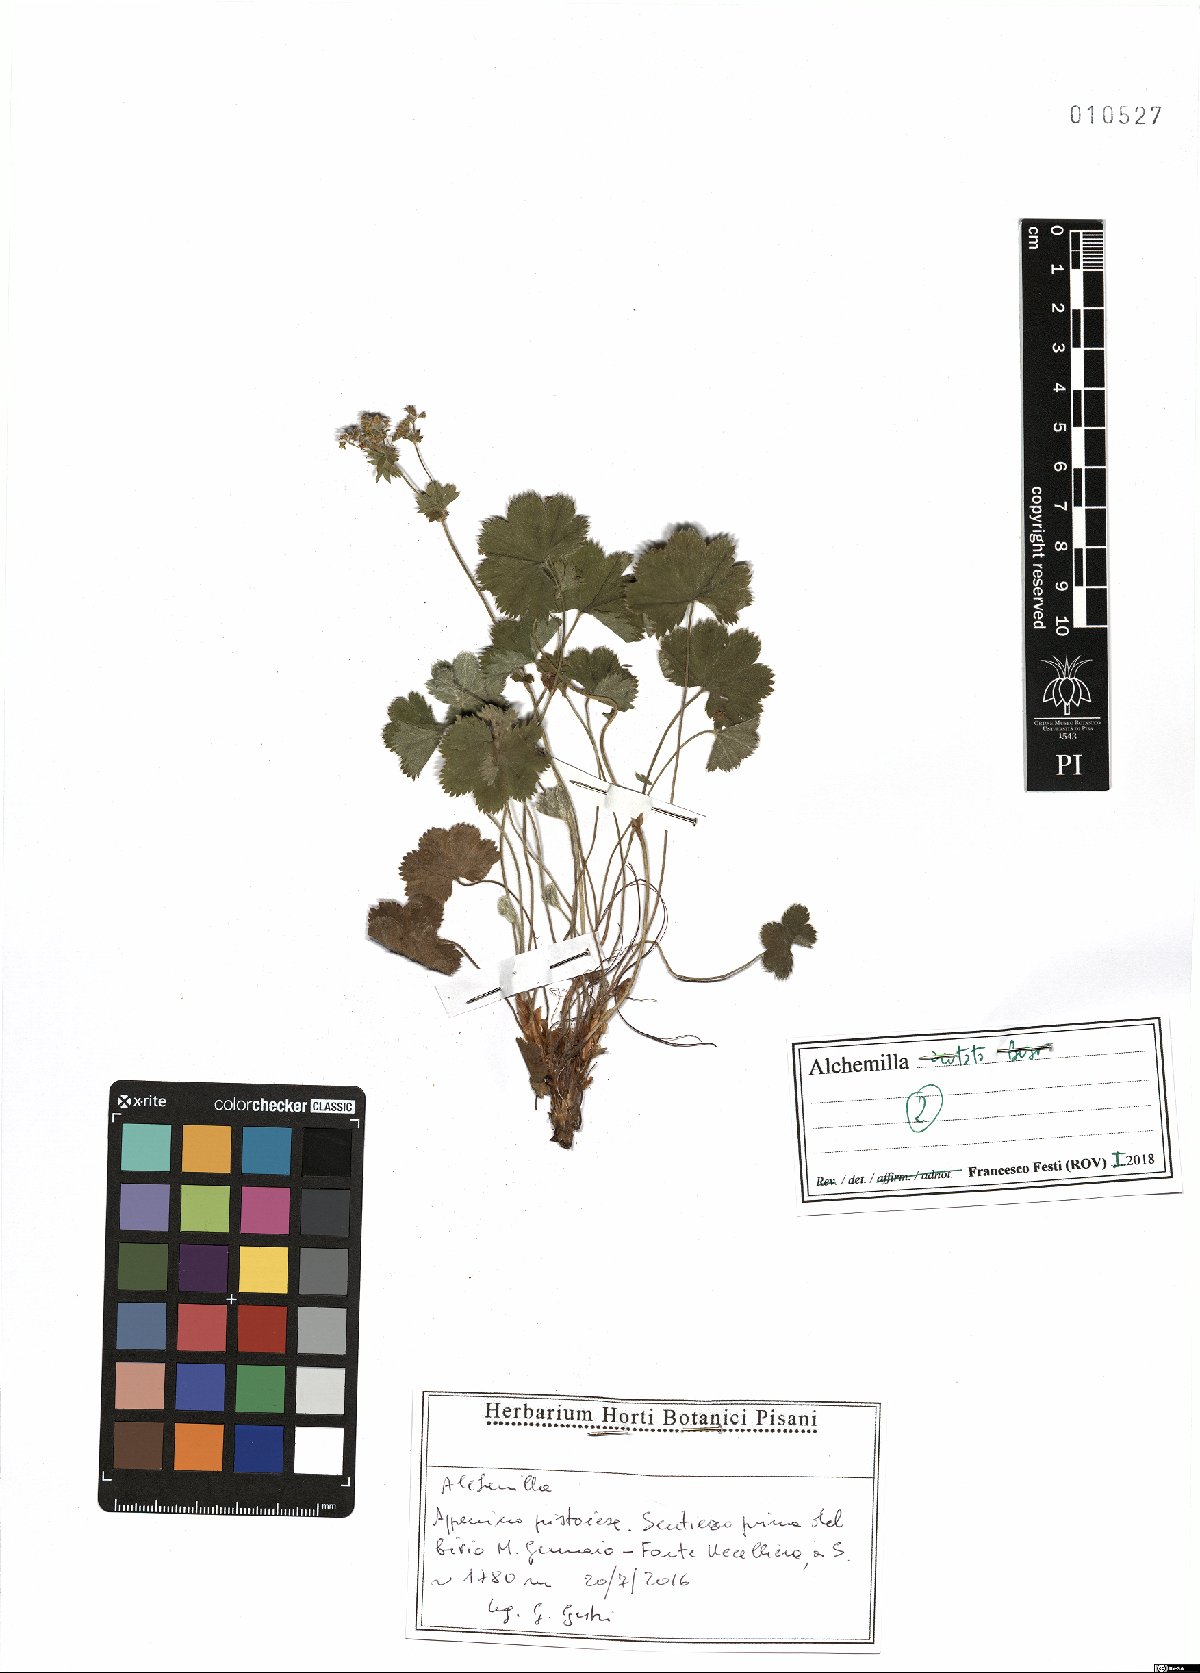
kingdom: Plantae
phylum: Tracheophyta
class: Magnoliopsida
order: Rosales
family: Rosaceae
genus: Alchemilla
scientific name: Alchemilla acutata
